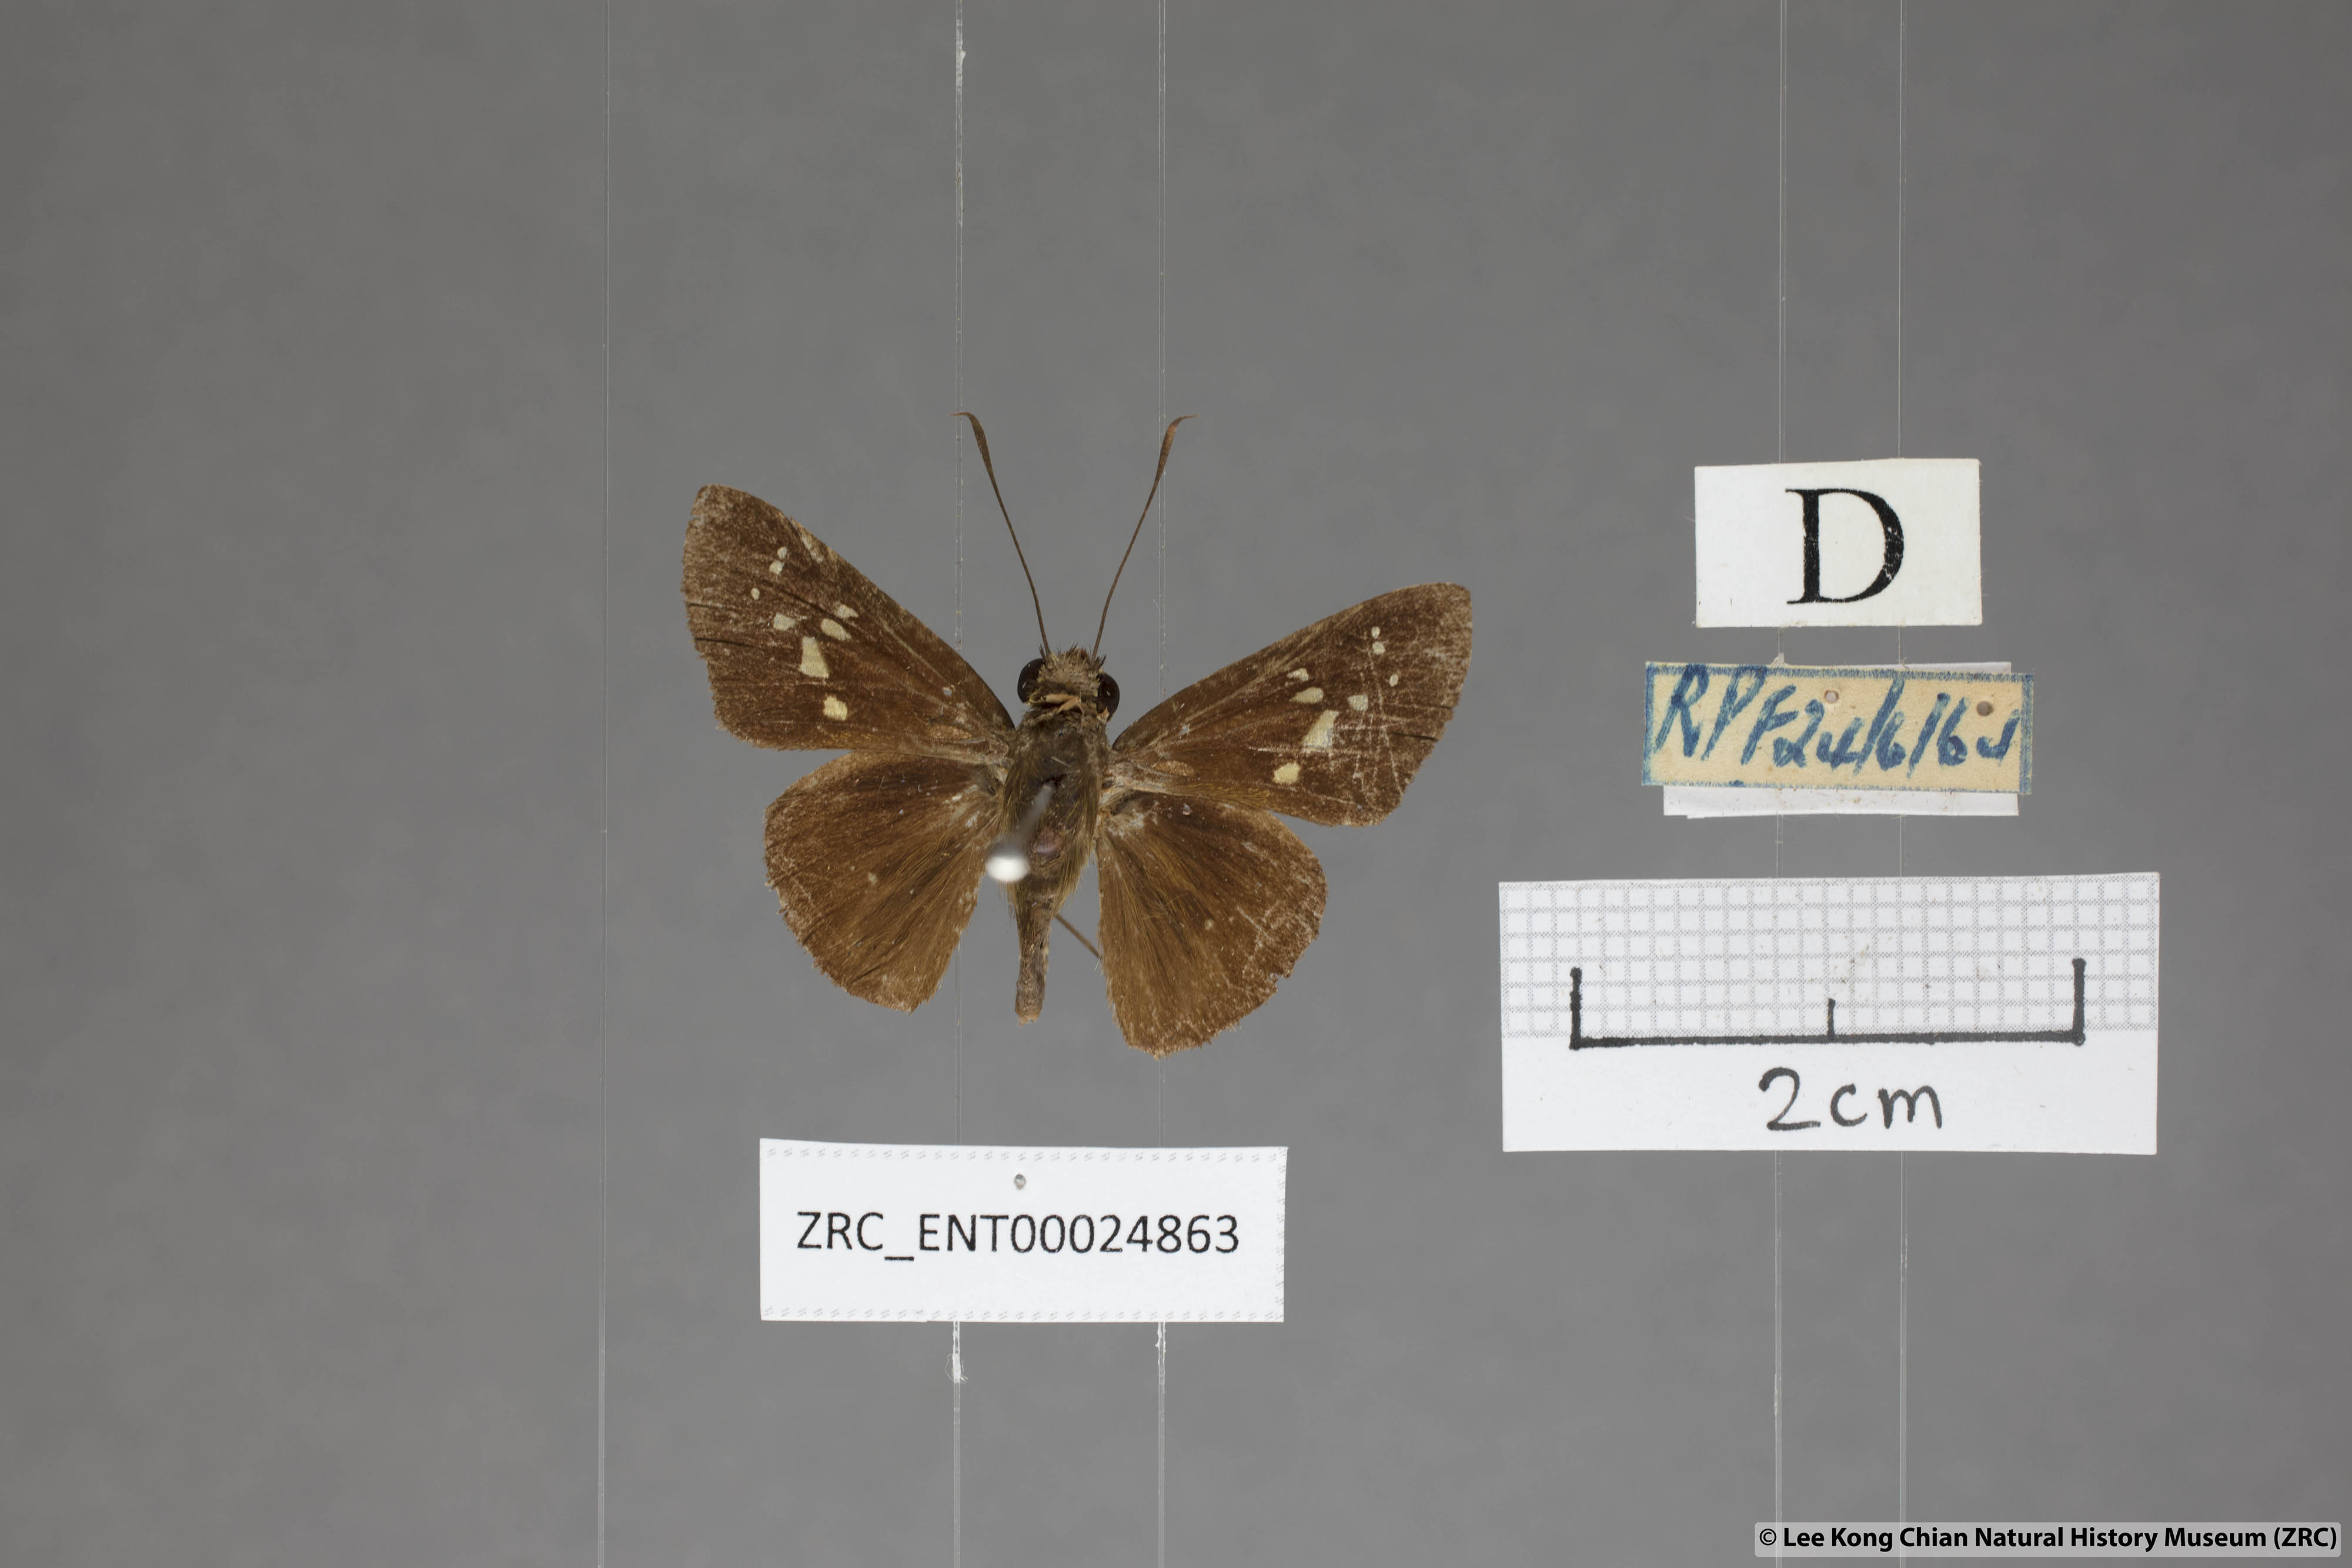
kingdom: Animalia
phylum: Arthropoda
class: Insecta
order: Lepidoptera
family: Hesperiidae
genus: Isma
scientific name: Isma miosticta
